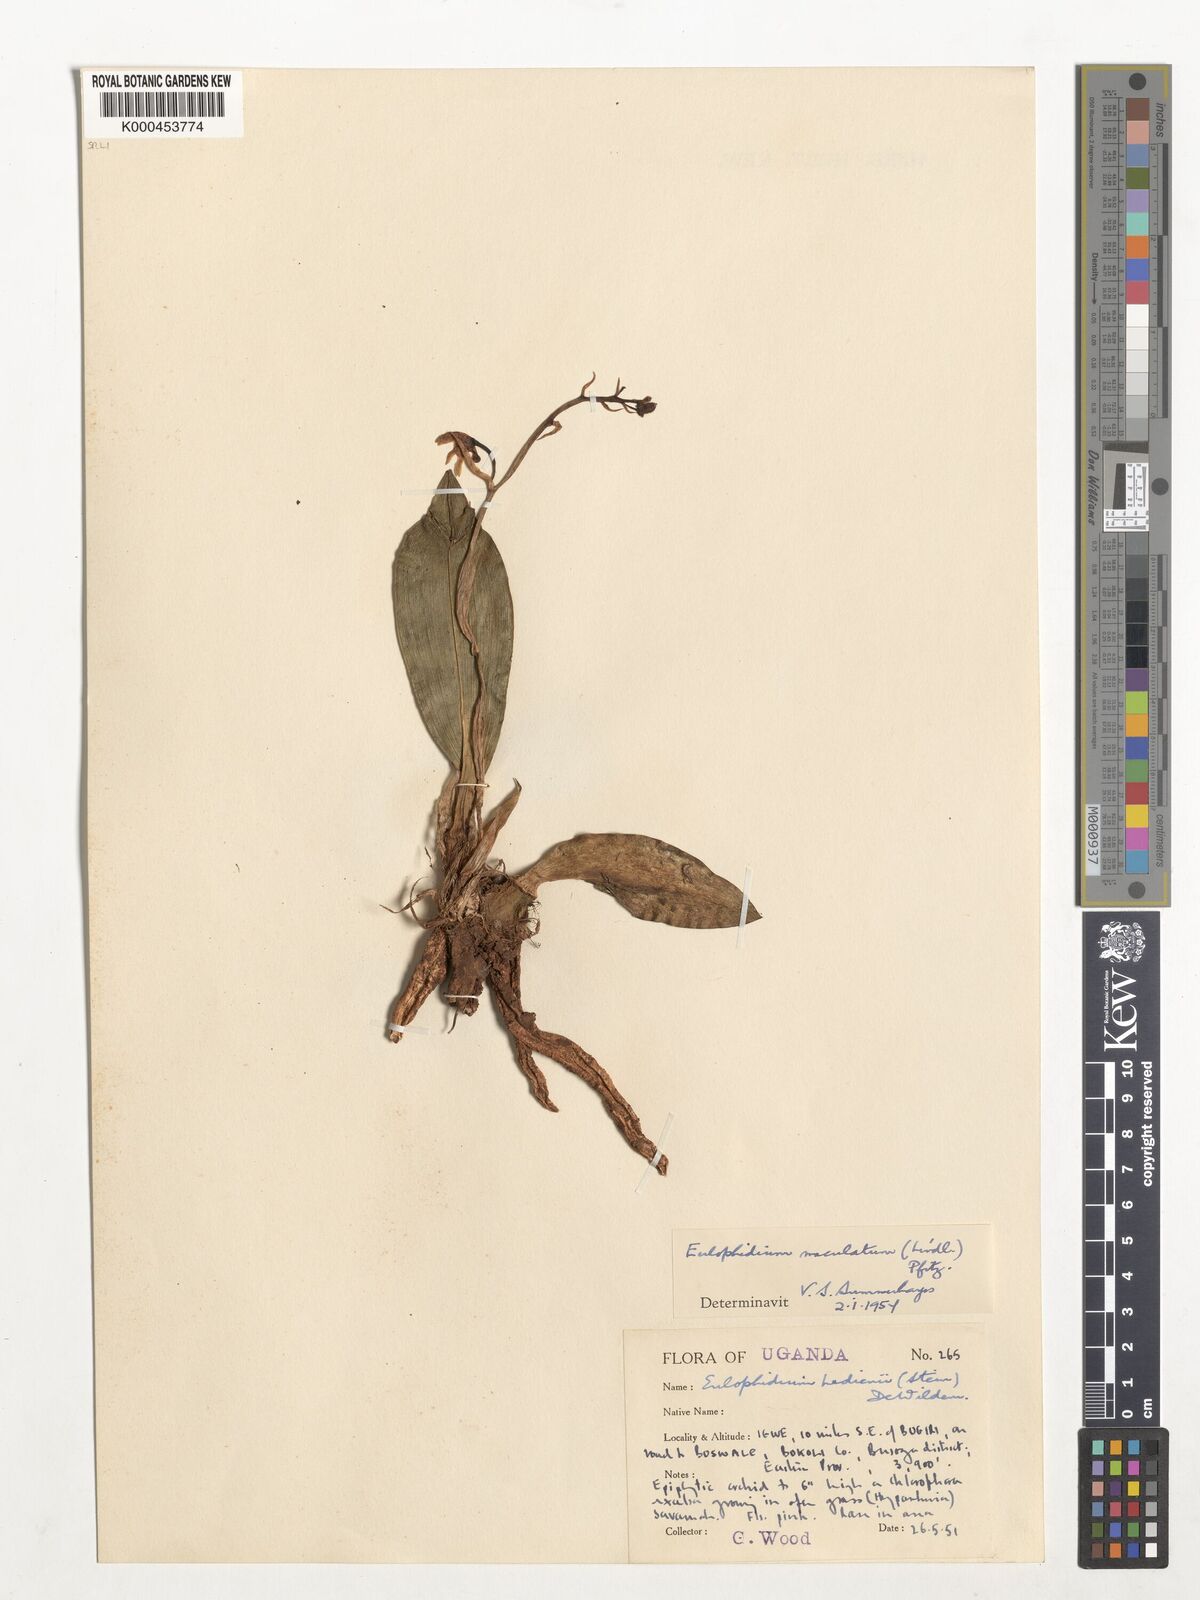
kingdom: Plantae
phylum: Tracheophyta
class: Liliopsida
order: Asparagales
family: Orchidaceae
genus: Eulophia
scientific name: Eulophia maculata
